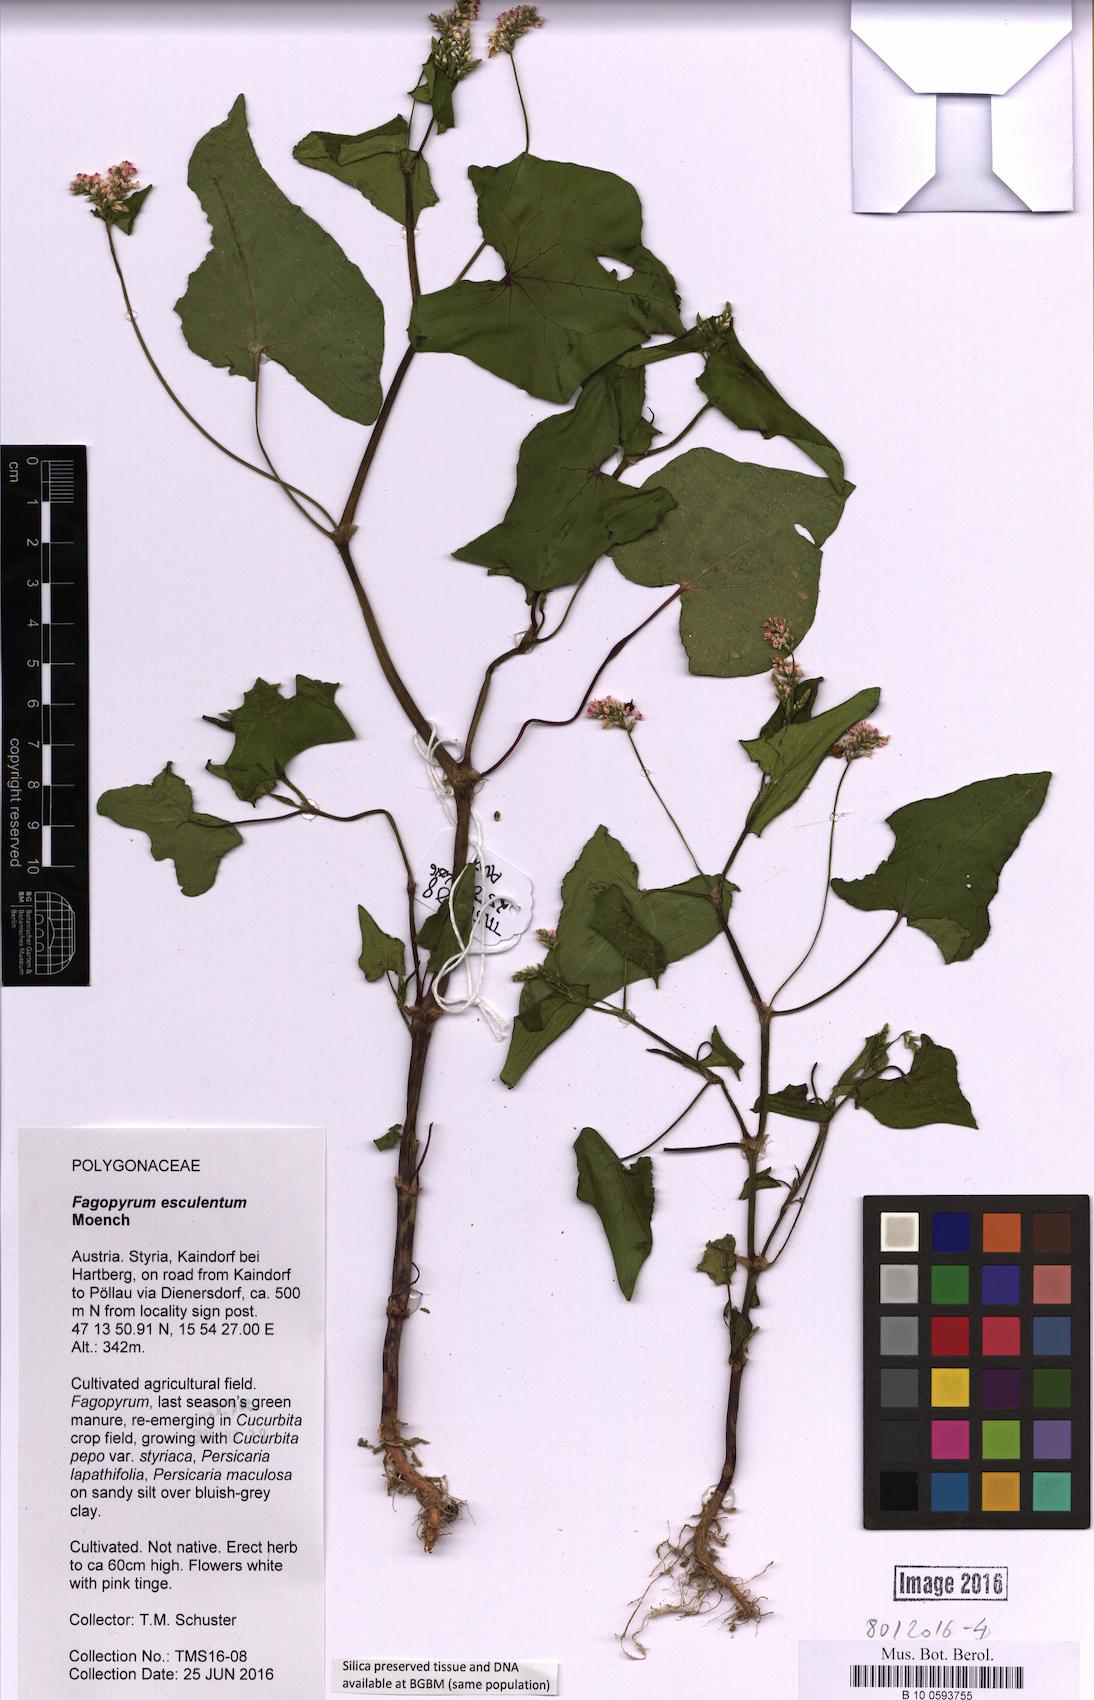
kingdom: Plantae
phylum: Tracheophyta
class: Magnoliopsida
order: Caryophyllales
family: Polygonaceae
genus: Fagopyrum
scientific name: Fagopyrum esculentum
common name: Buckwheat
